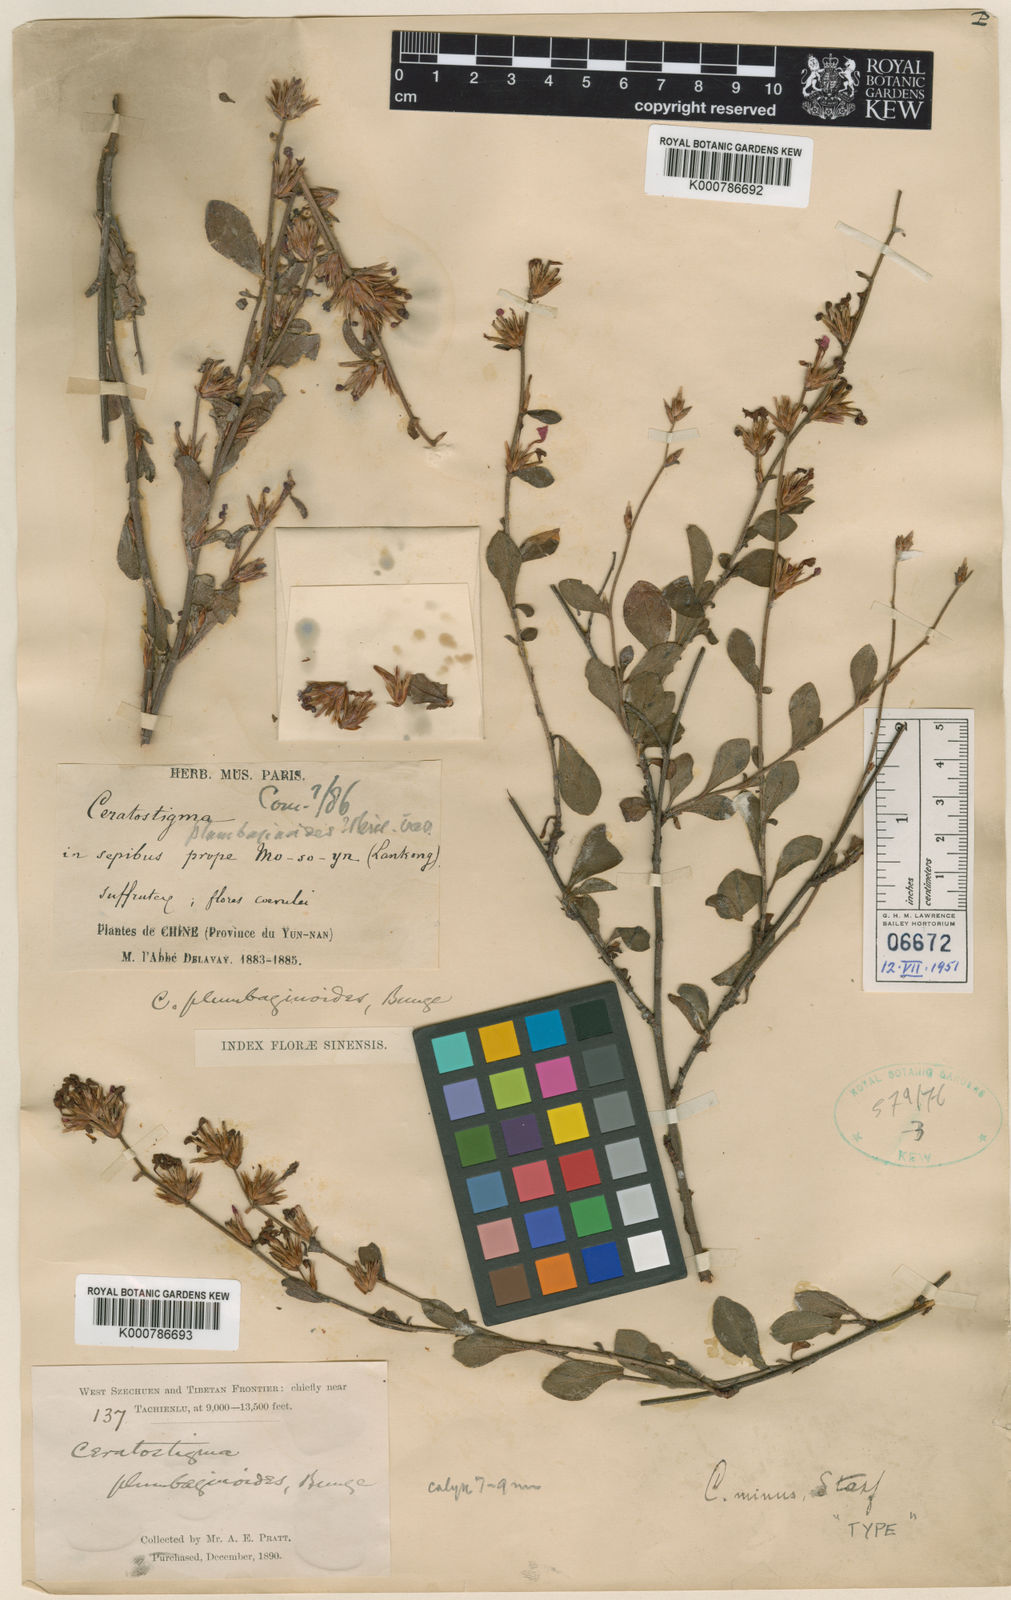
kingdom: Plantae
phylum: Tracheophyta
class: Magnoliopsida
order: Caryophyllales
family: Plumbaginaceae
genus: Ceratostigma
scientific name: Ceratostigma minus
